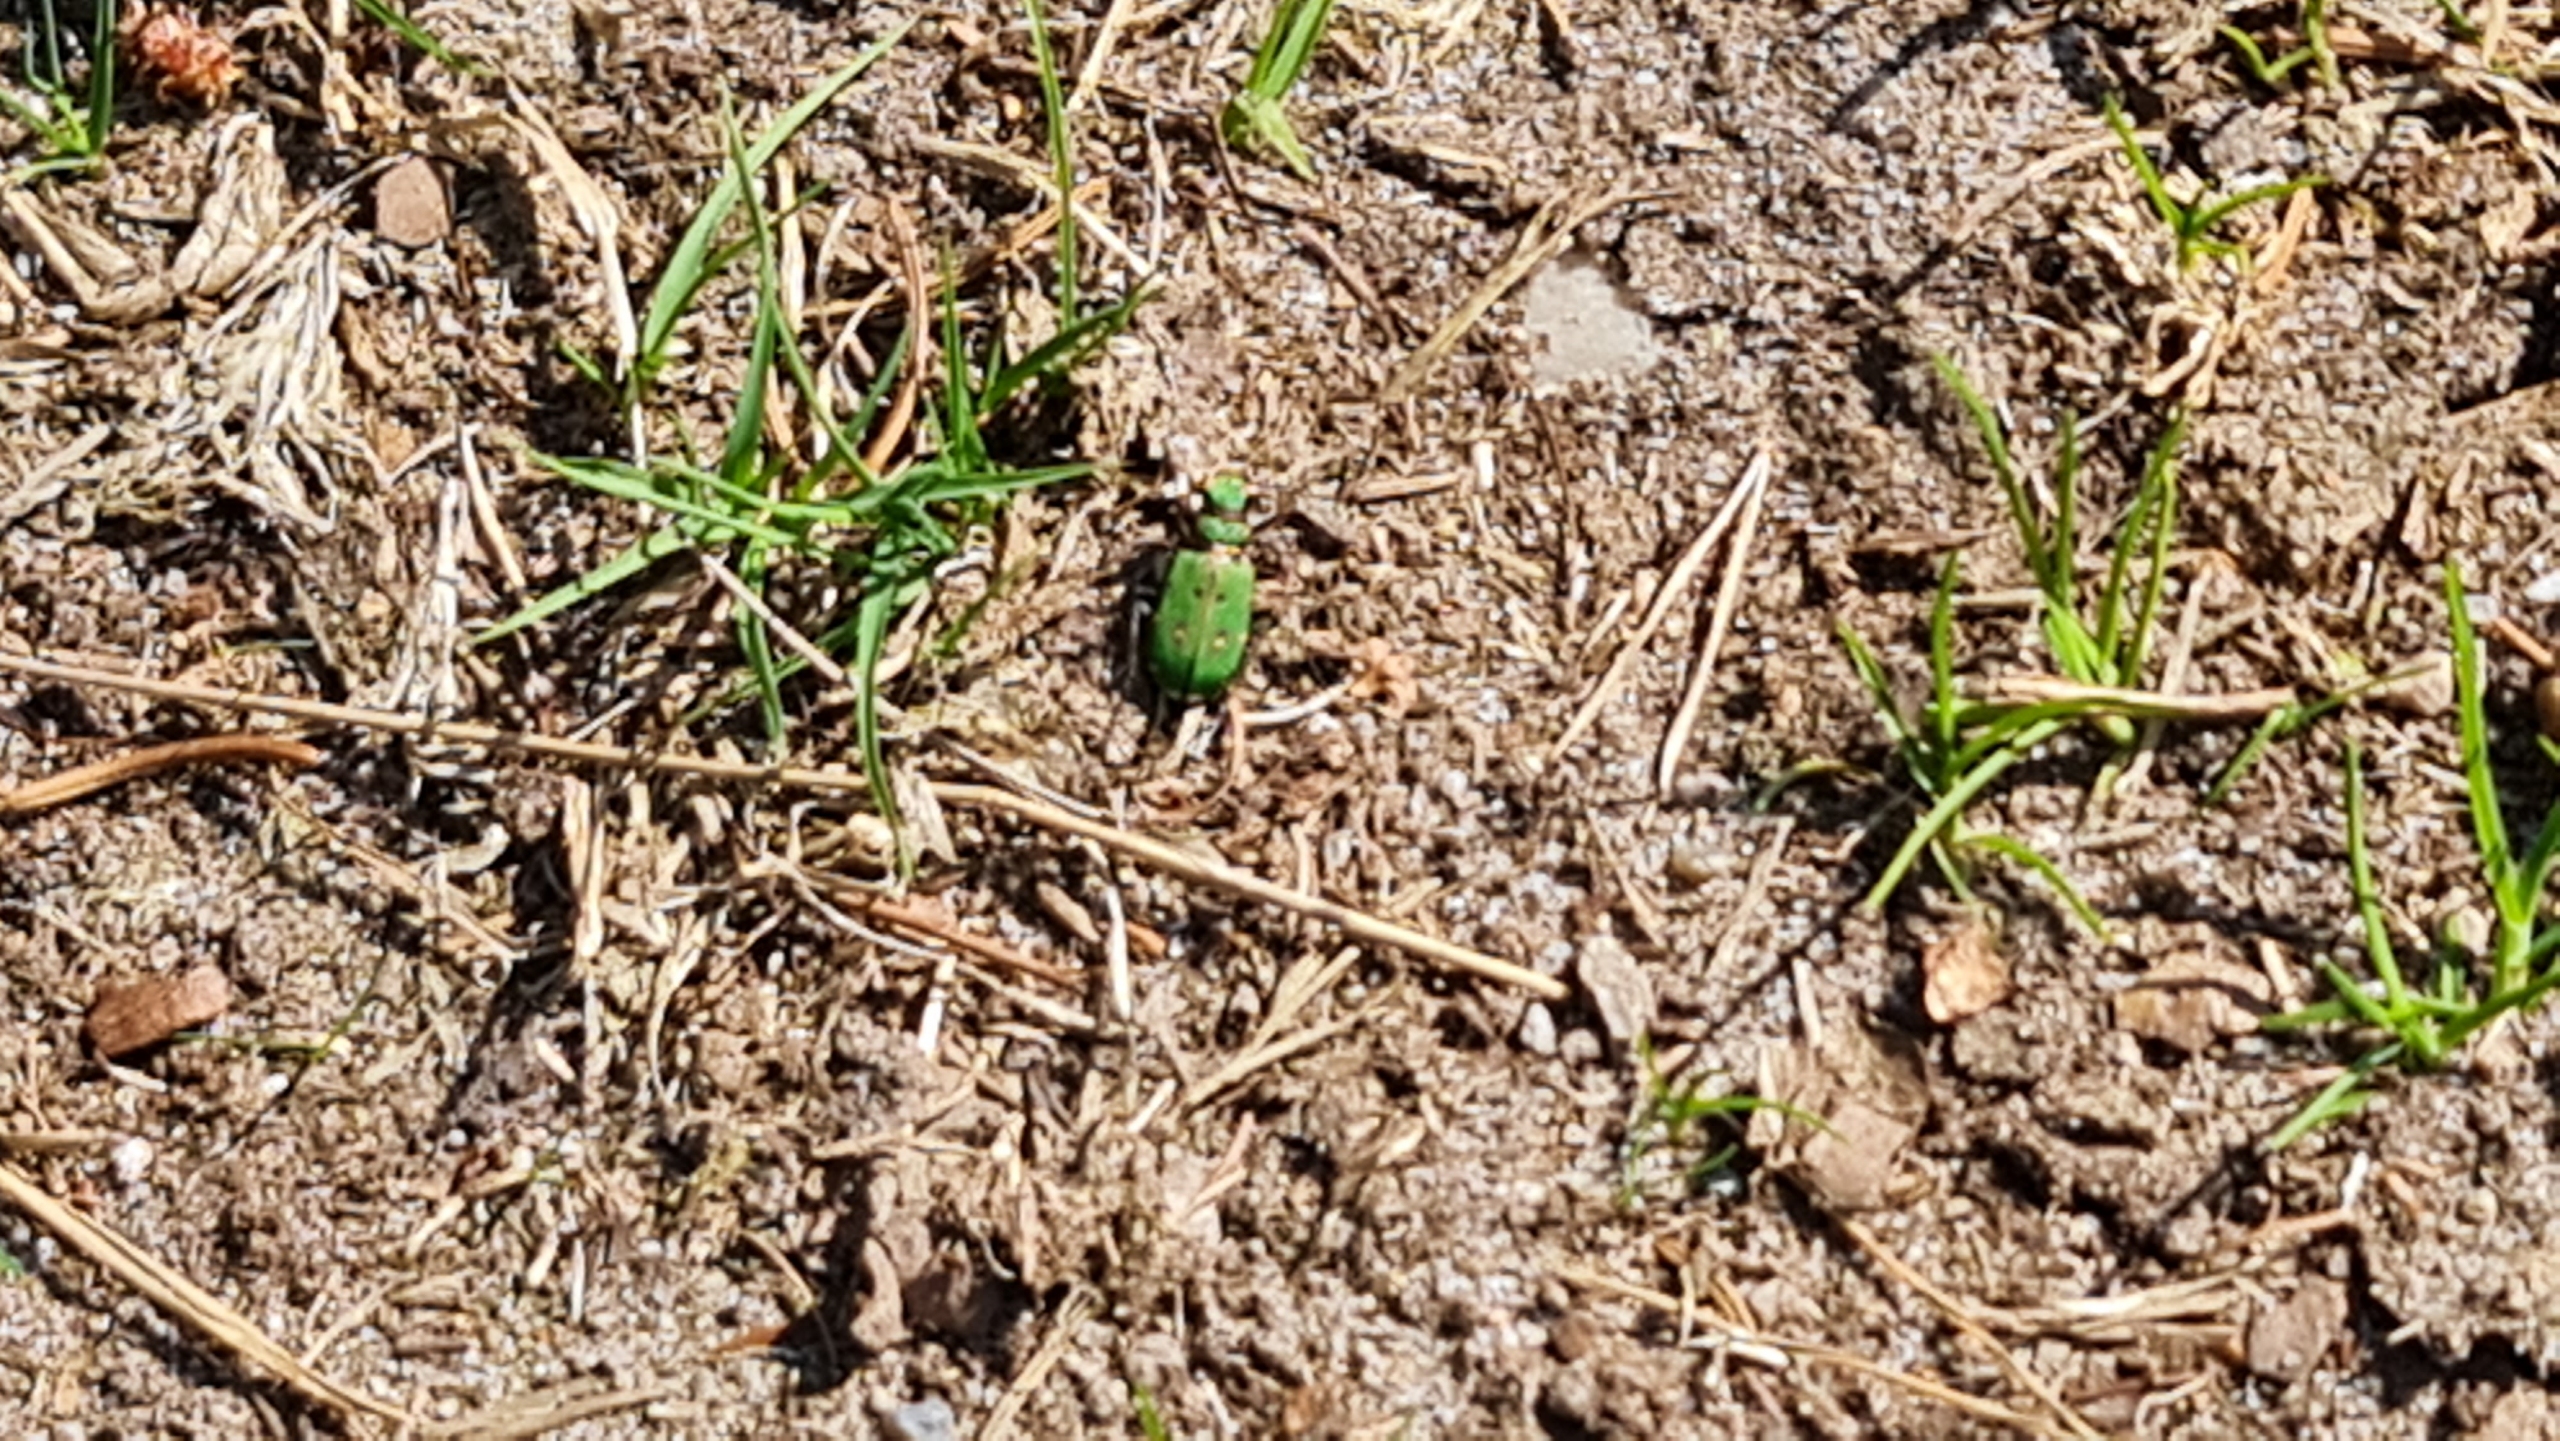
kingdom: Animalia
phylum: Arthropoda
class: Insecta
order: Coleoptera
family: Carabidae
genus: Cicindela
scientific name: Cicindela campestris
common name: Grøn sandspringer
